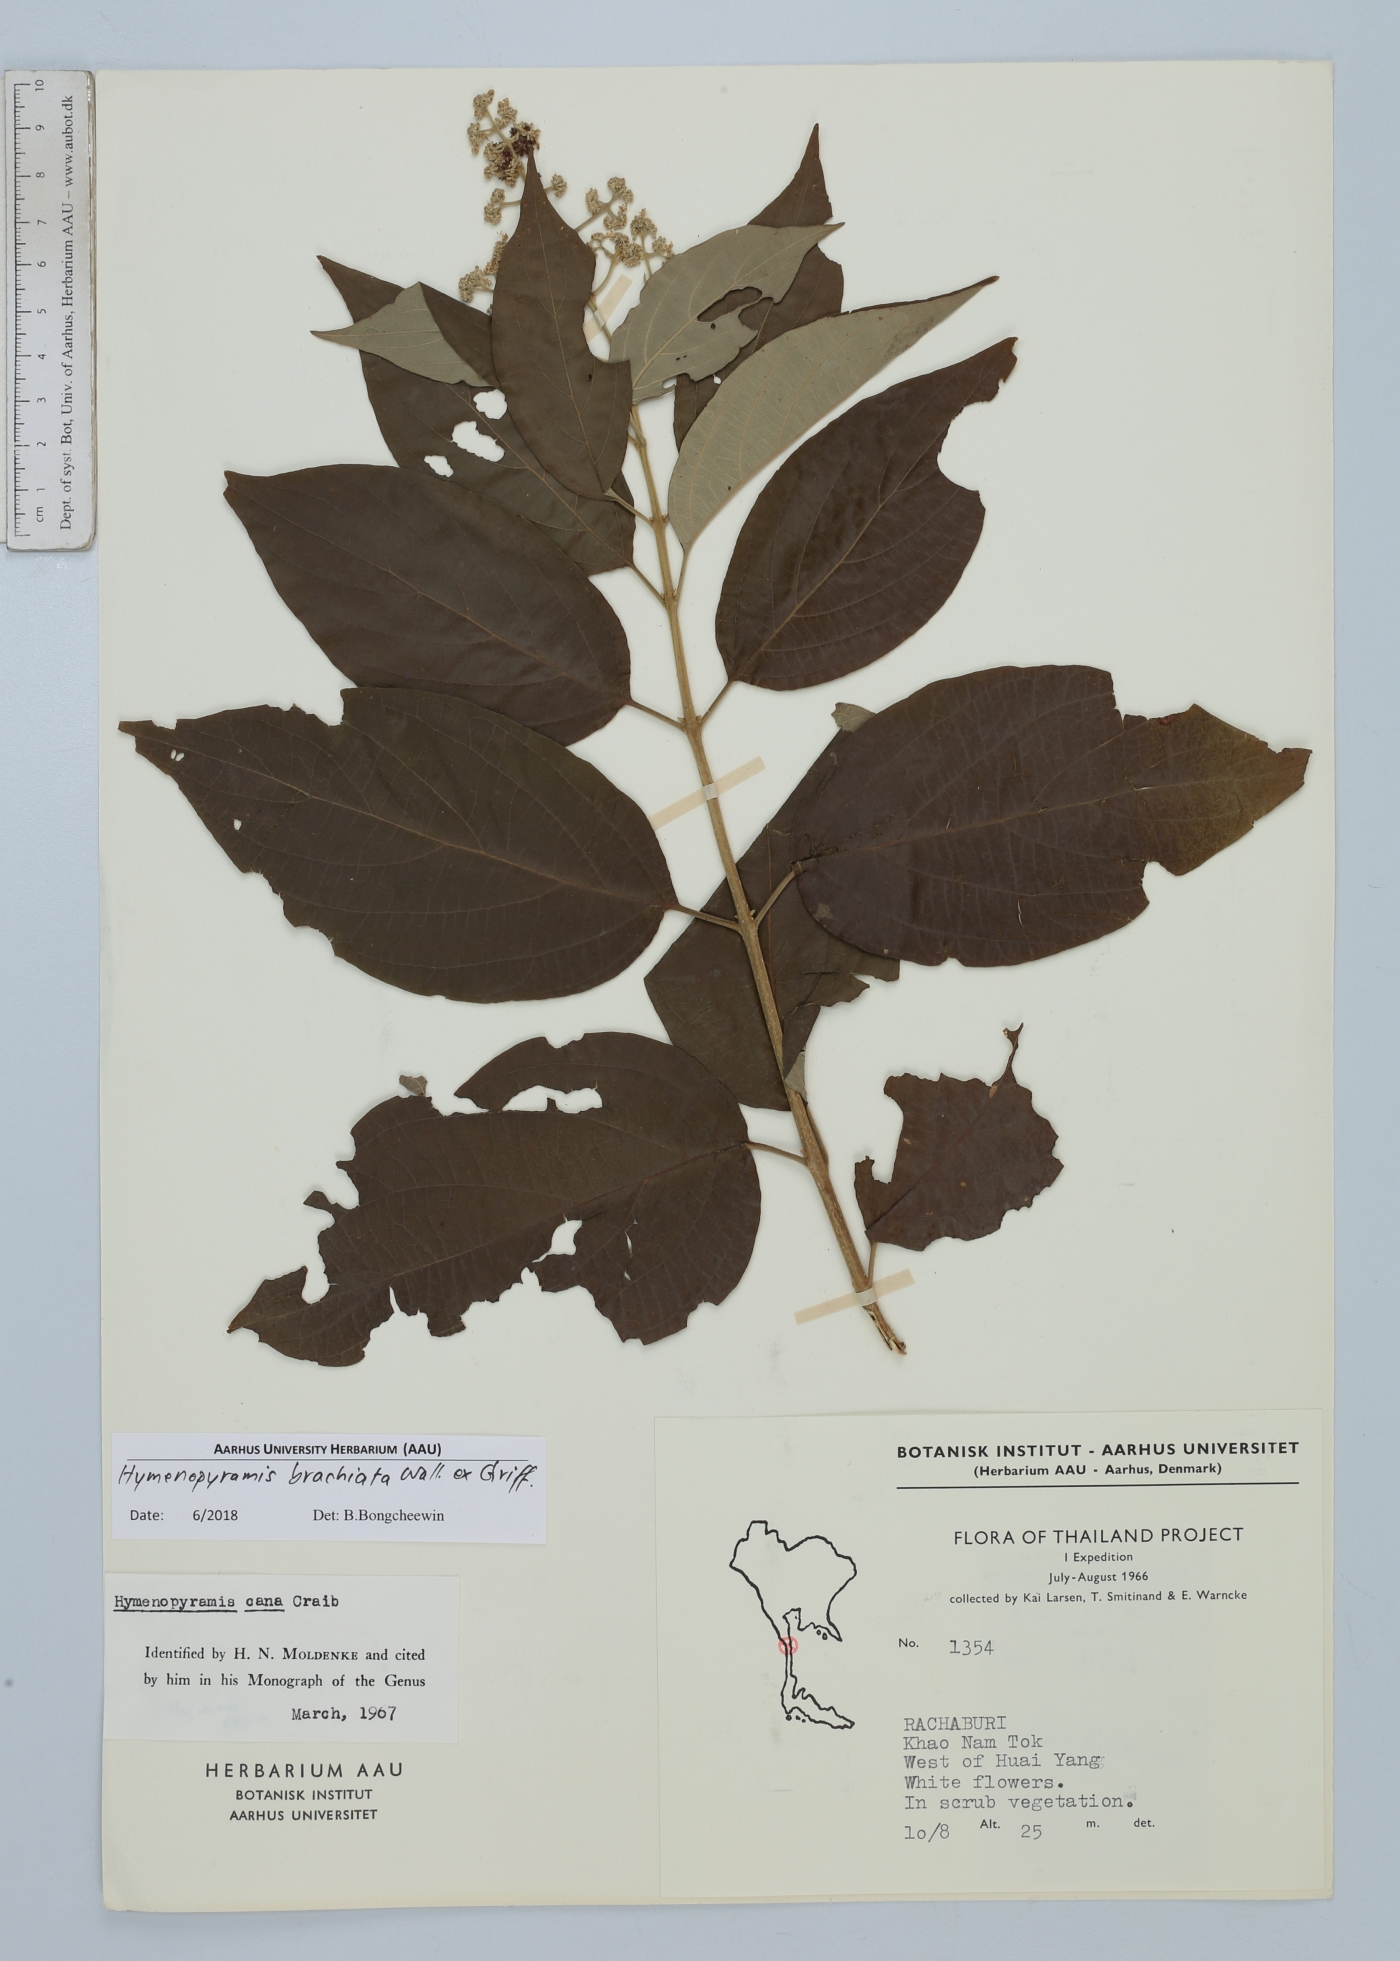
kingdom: Plantae
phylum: Tracheophyta
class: Magnoliopsida
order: Lamiales
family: Lamiaceae
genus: Hymenopyramis
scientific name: Hymenopyramis brachiata
